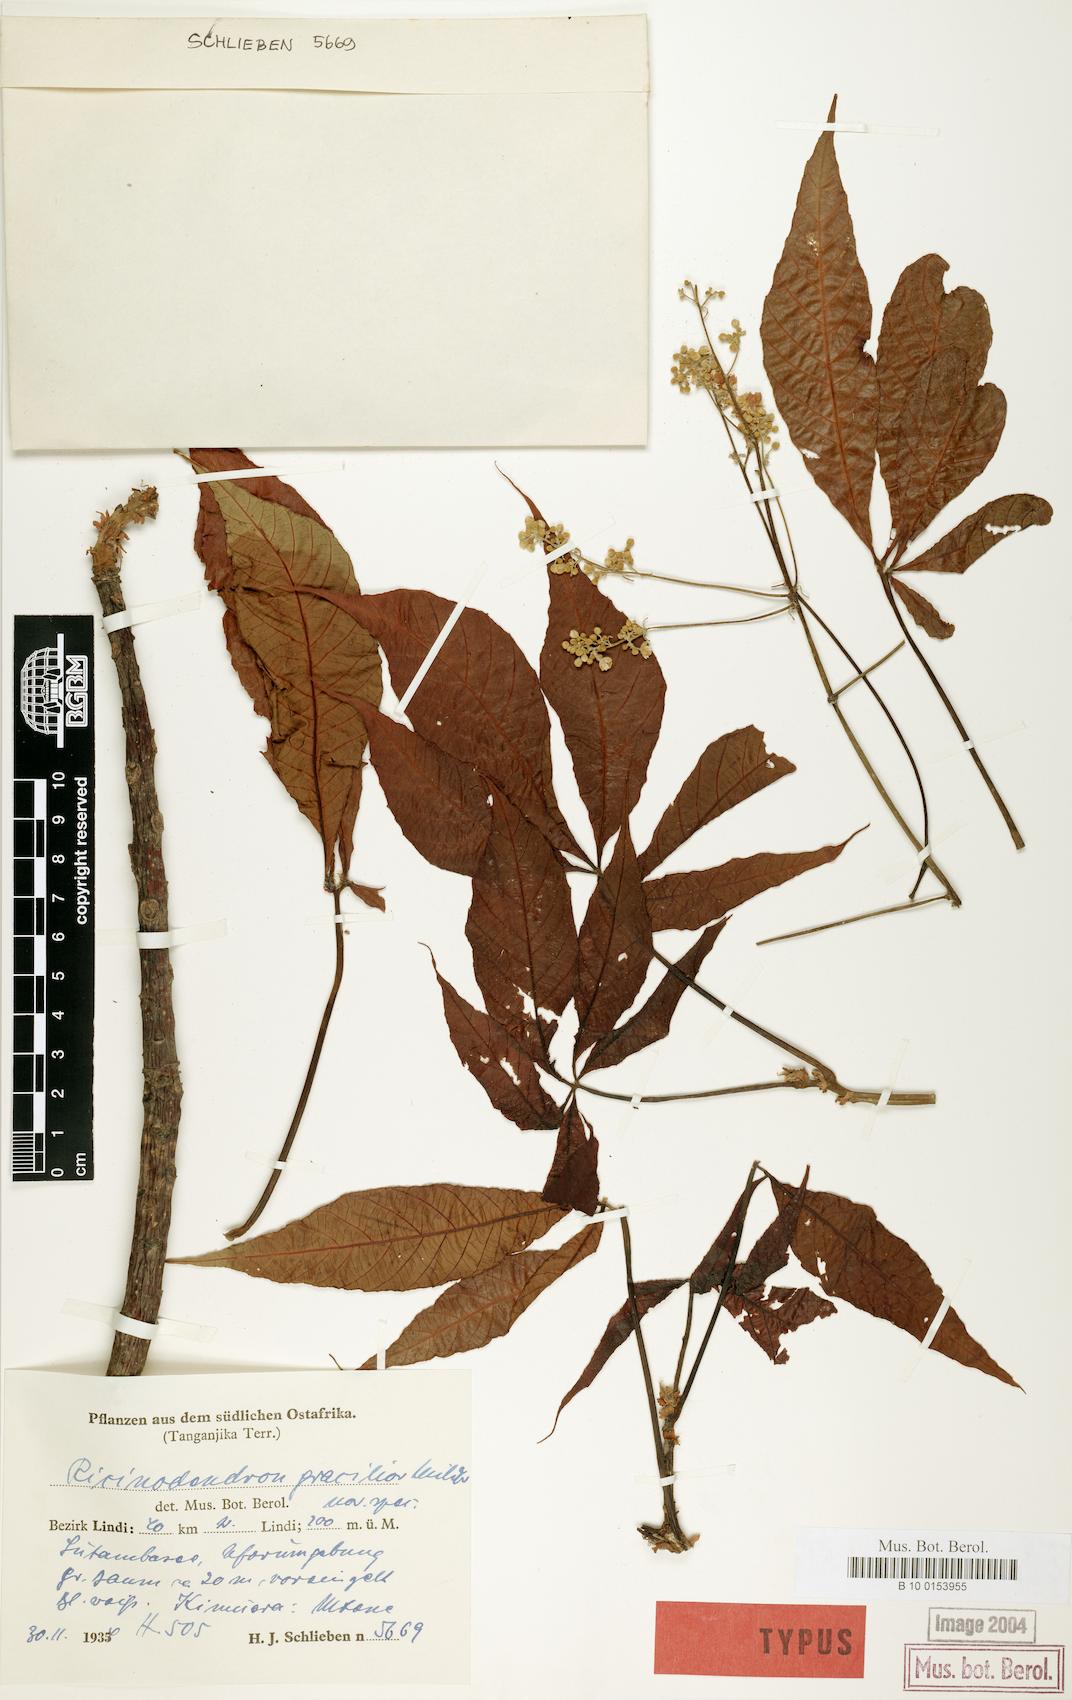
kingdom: Plantae
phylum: Tracheophyta
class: Magnoliopsida
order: Malpighiales
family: Euphorbiaceae
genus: Ricinodendron
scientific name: Ricinodendron heudelotii
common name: African nut-tree
